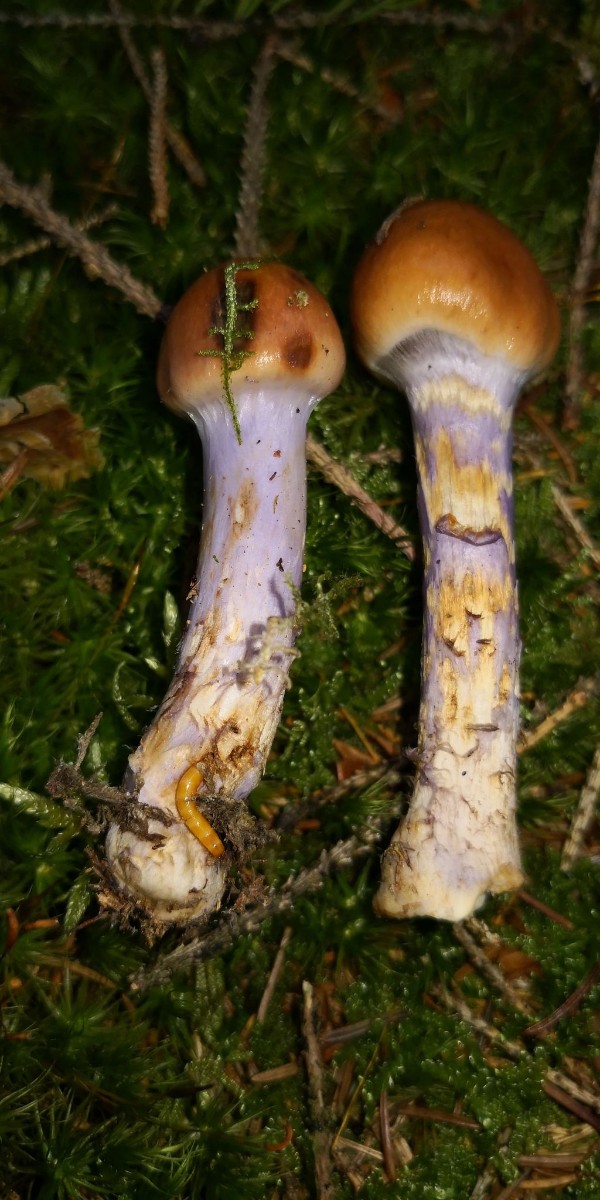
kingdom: Fungi
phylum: Basidiomycota
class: Agaricomycetes
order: Agaricales
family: Cortinariaceae
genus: Cortinarius
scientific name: Cortinarius collinitus
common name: spættet slørhat
